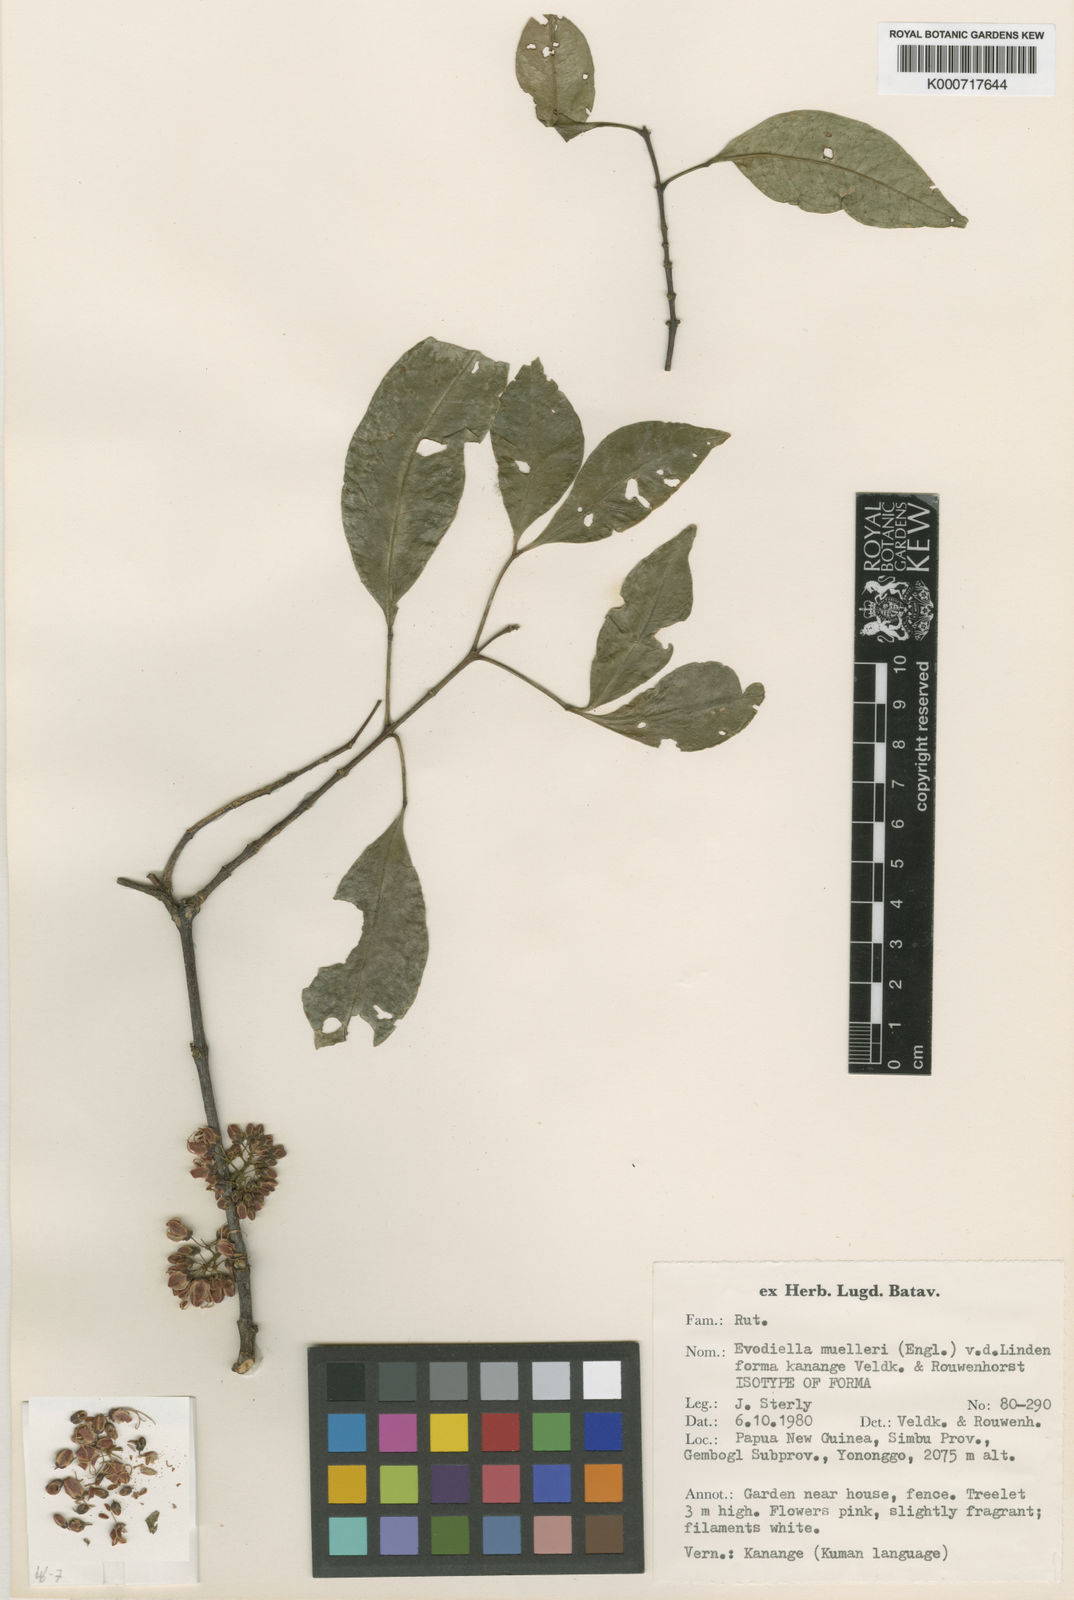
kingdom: Plantae
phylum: Tracheophyta
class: Magnoliopsida
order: Sapindales
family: Rutaceae
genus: Melicope
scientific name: Melicope elleryana
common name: Pink euodia
